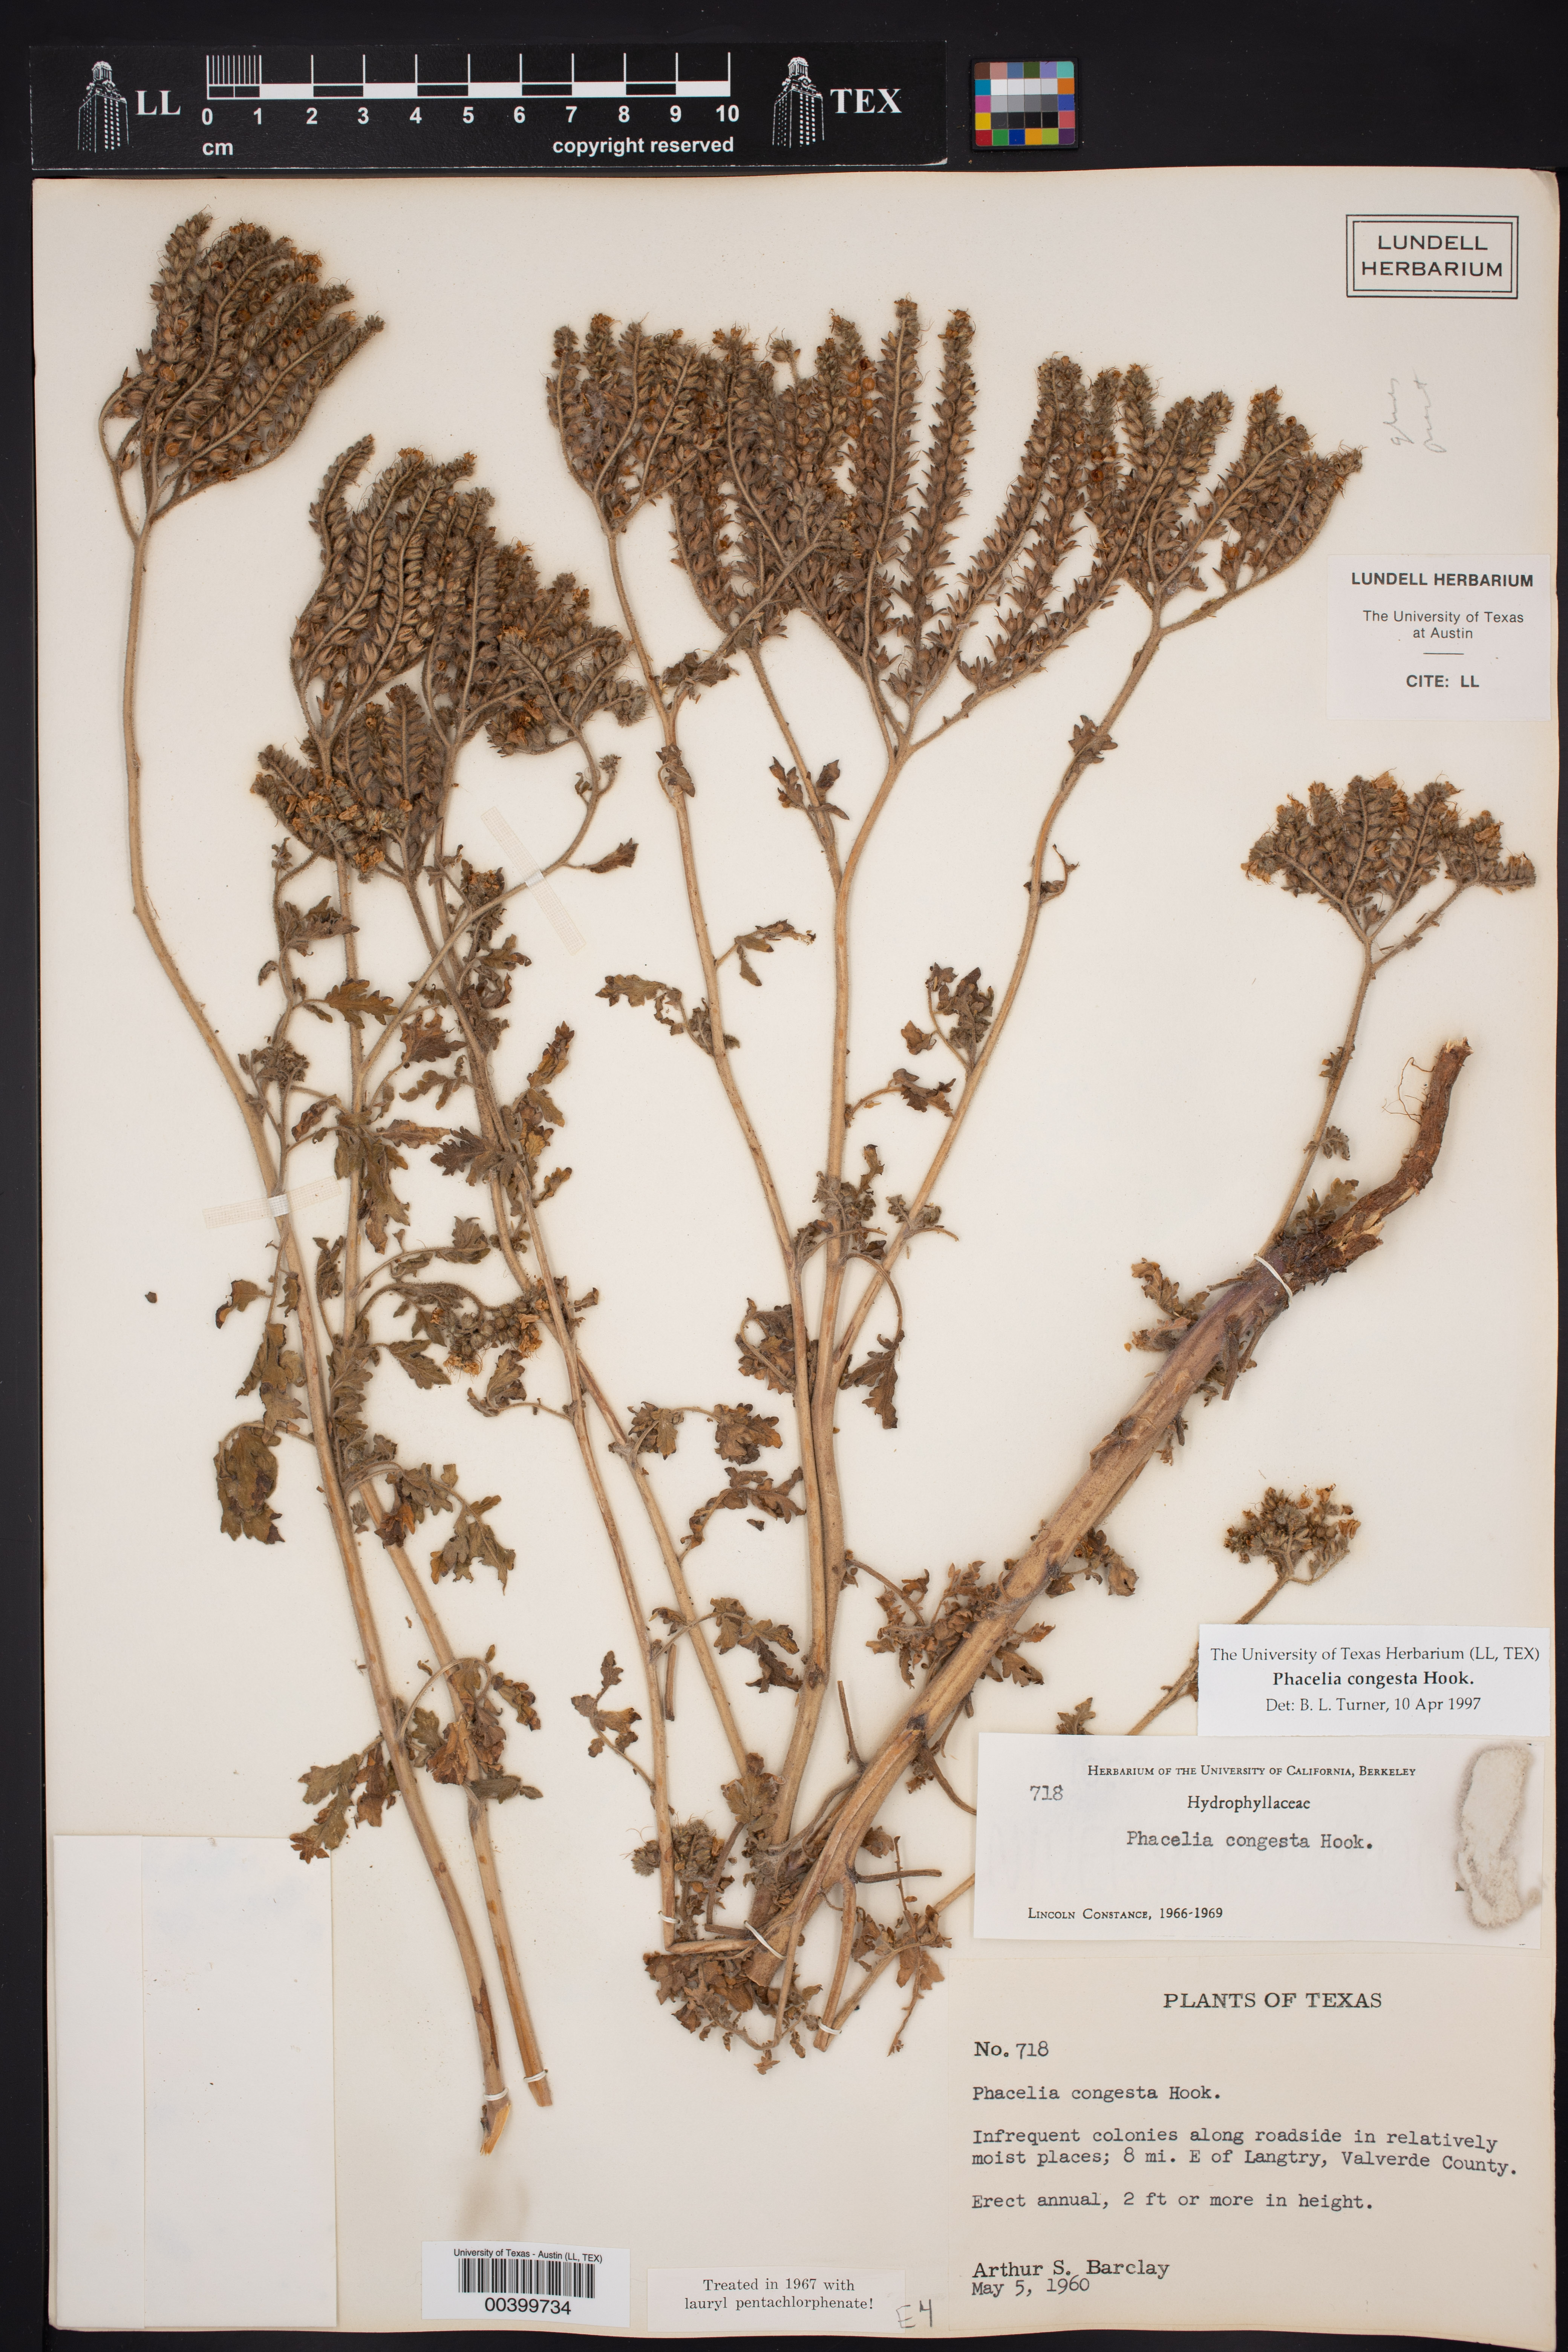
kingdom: Plantae
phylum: Tracheophyta
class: Magnoliopsida
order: Boraginales
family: Hydrophyllaceae
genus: Phacelia
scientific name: Phacelia congesta
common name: Blue curls
